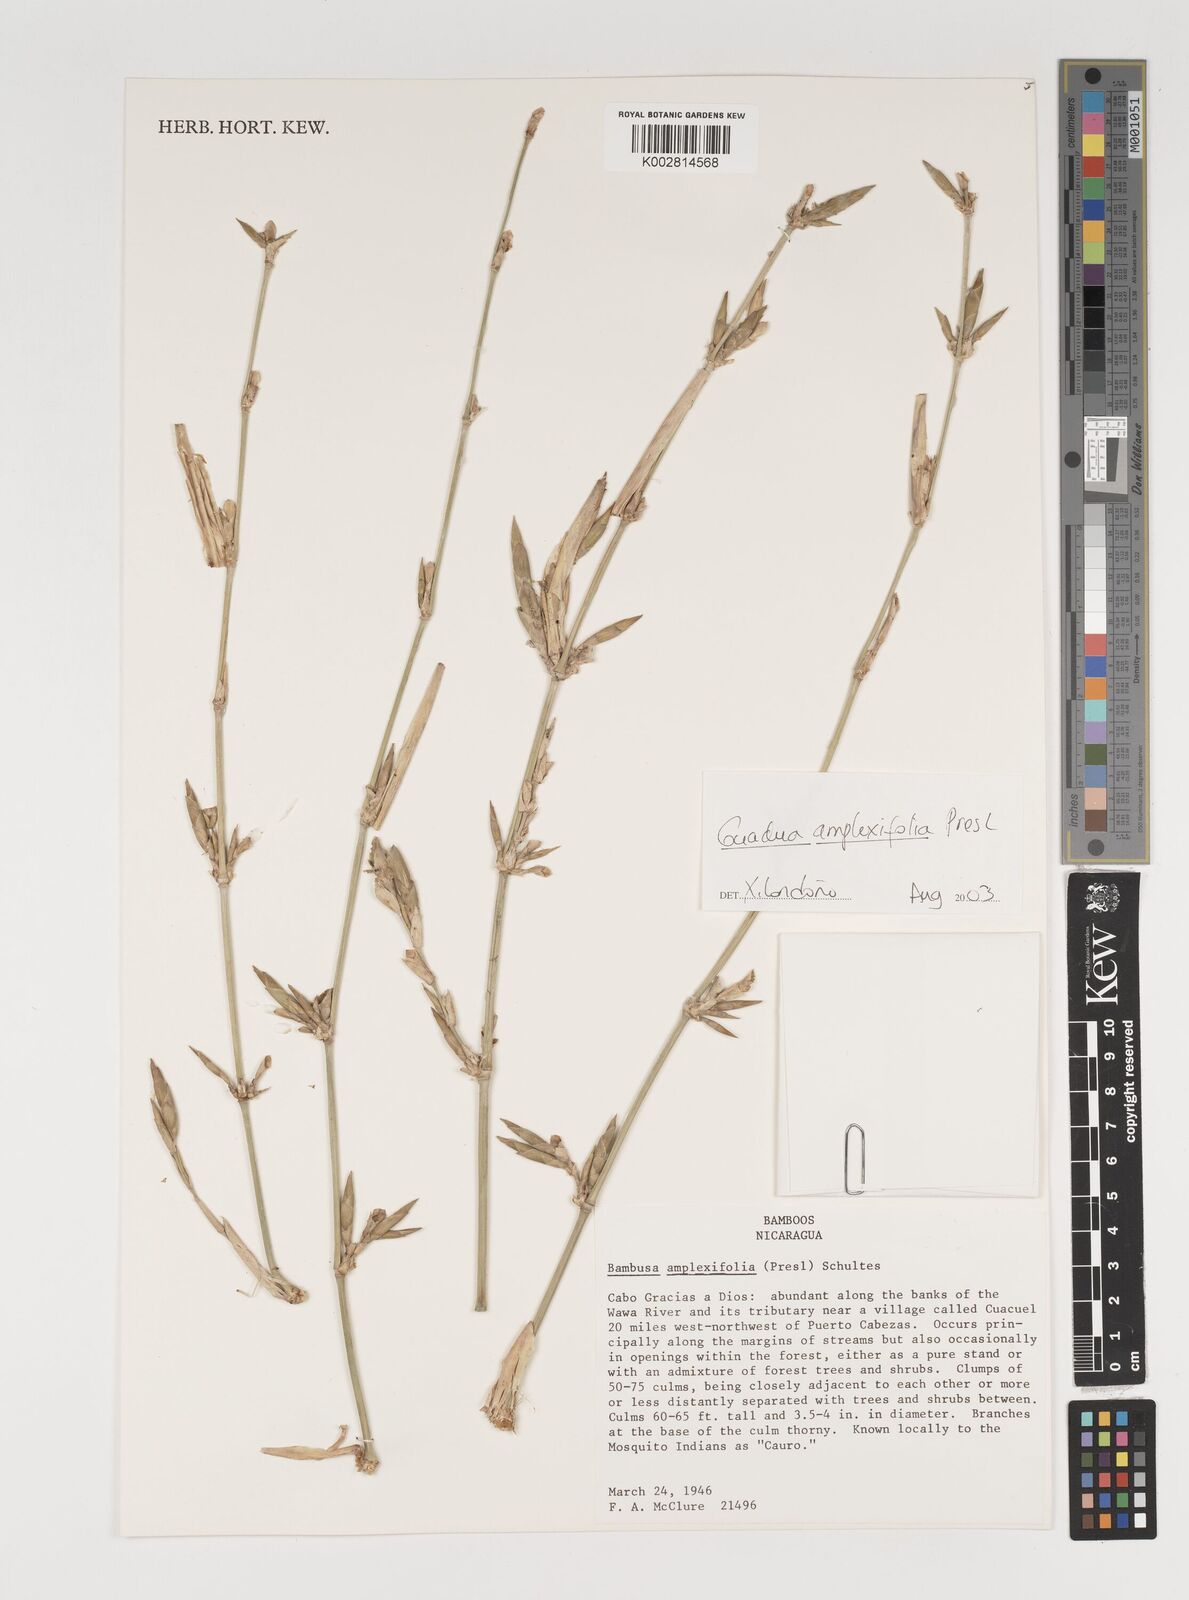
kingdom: Plantae
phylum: Tracheophyta
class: Liliopsida
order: Poales
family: Poaceae
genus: Guadua
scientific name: Guadua amplexifolia
